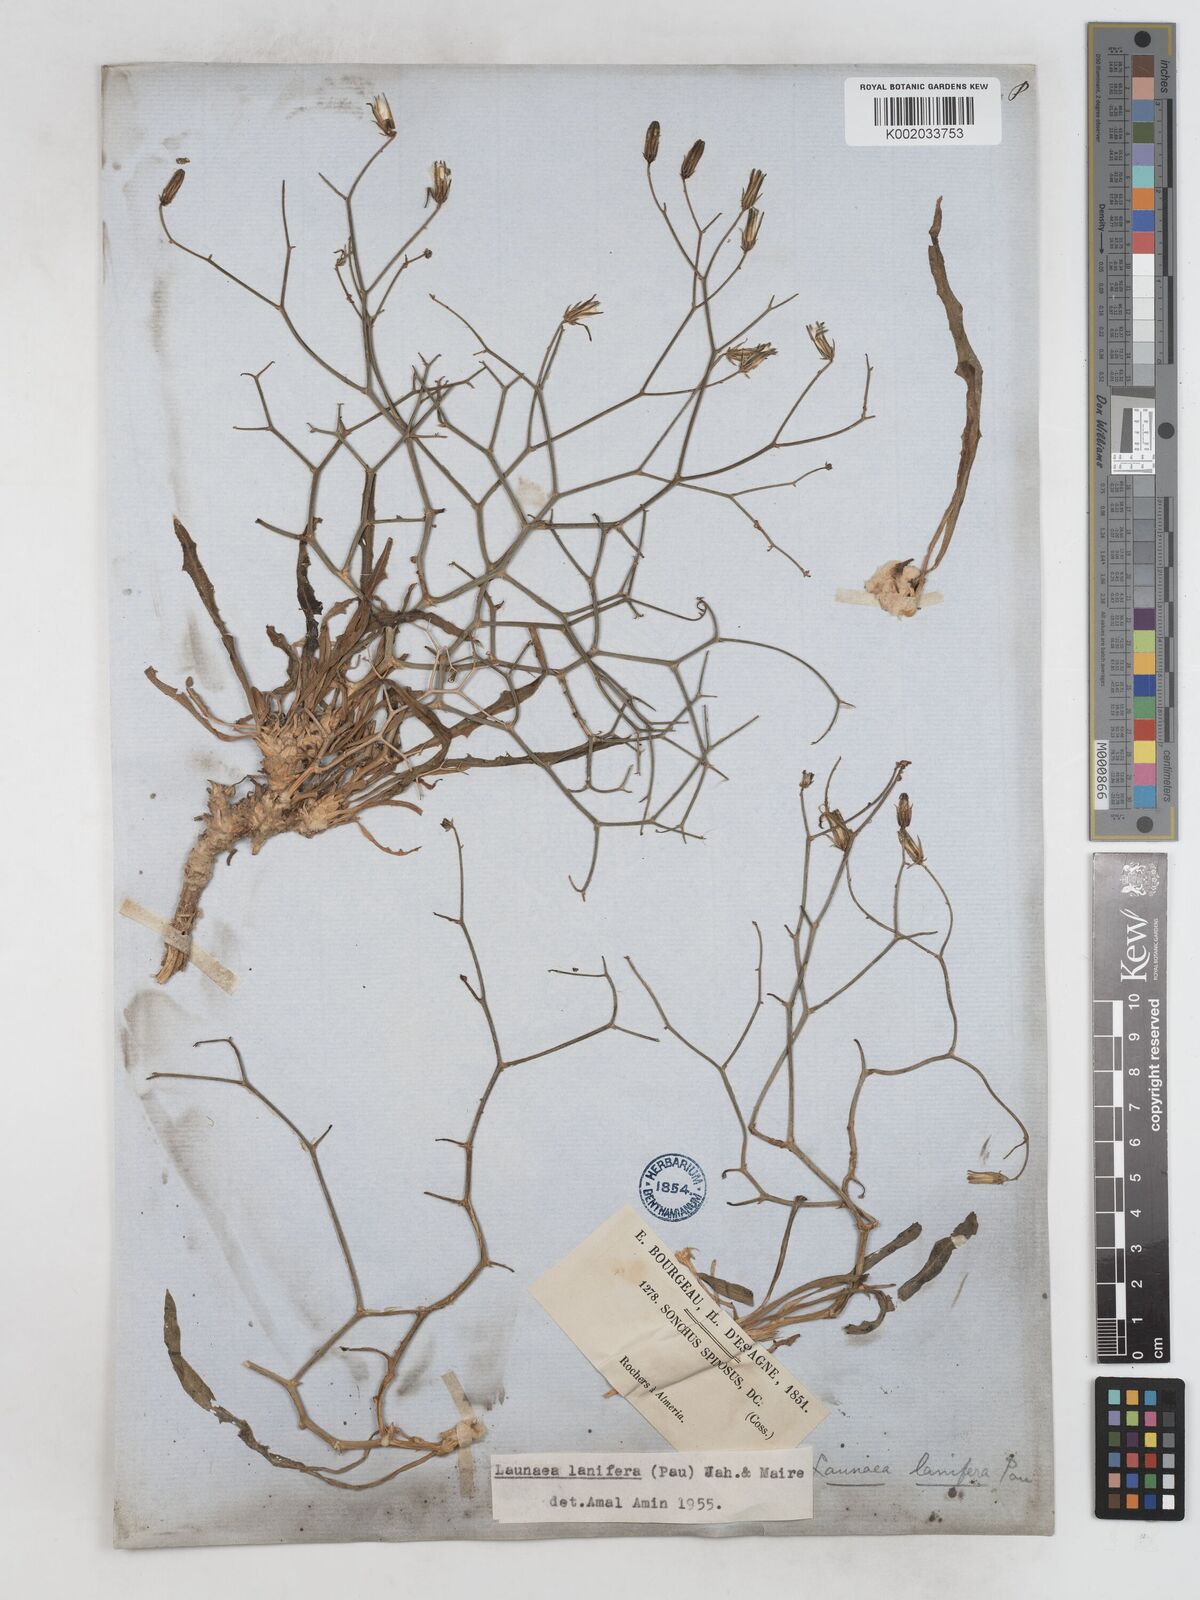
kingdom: Plantae
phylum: Tracheophyta
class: Magnoliopsida
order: Asterales
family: Asteraceae
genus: Launaea
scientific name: Launaea lanifera
